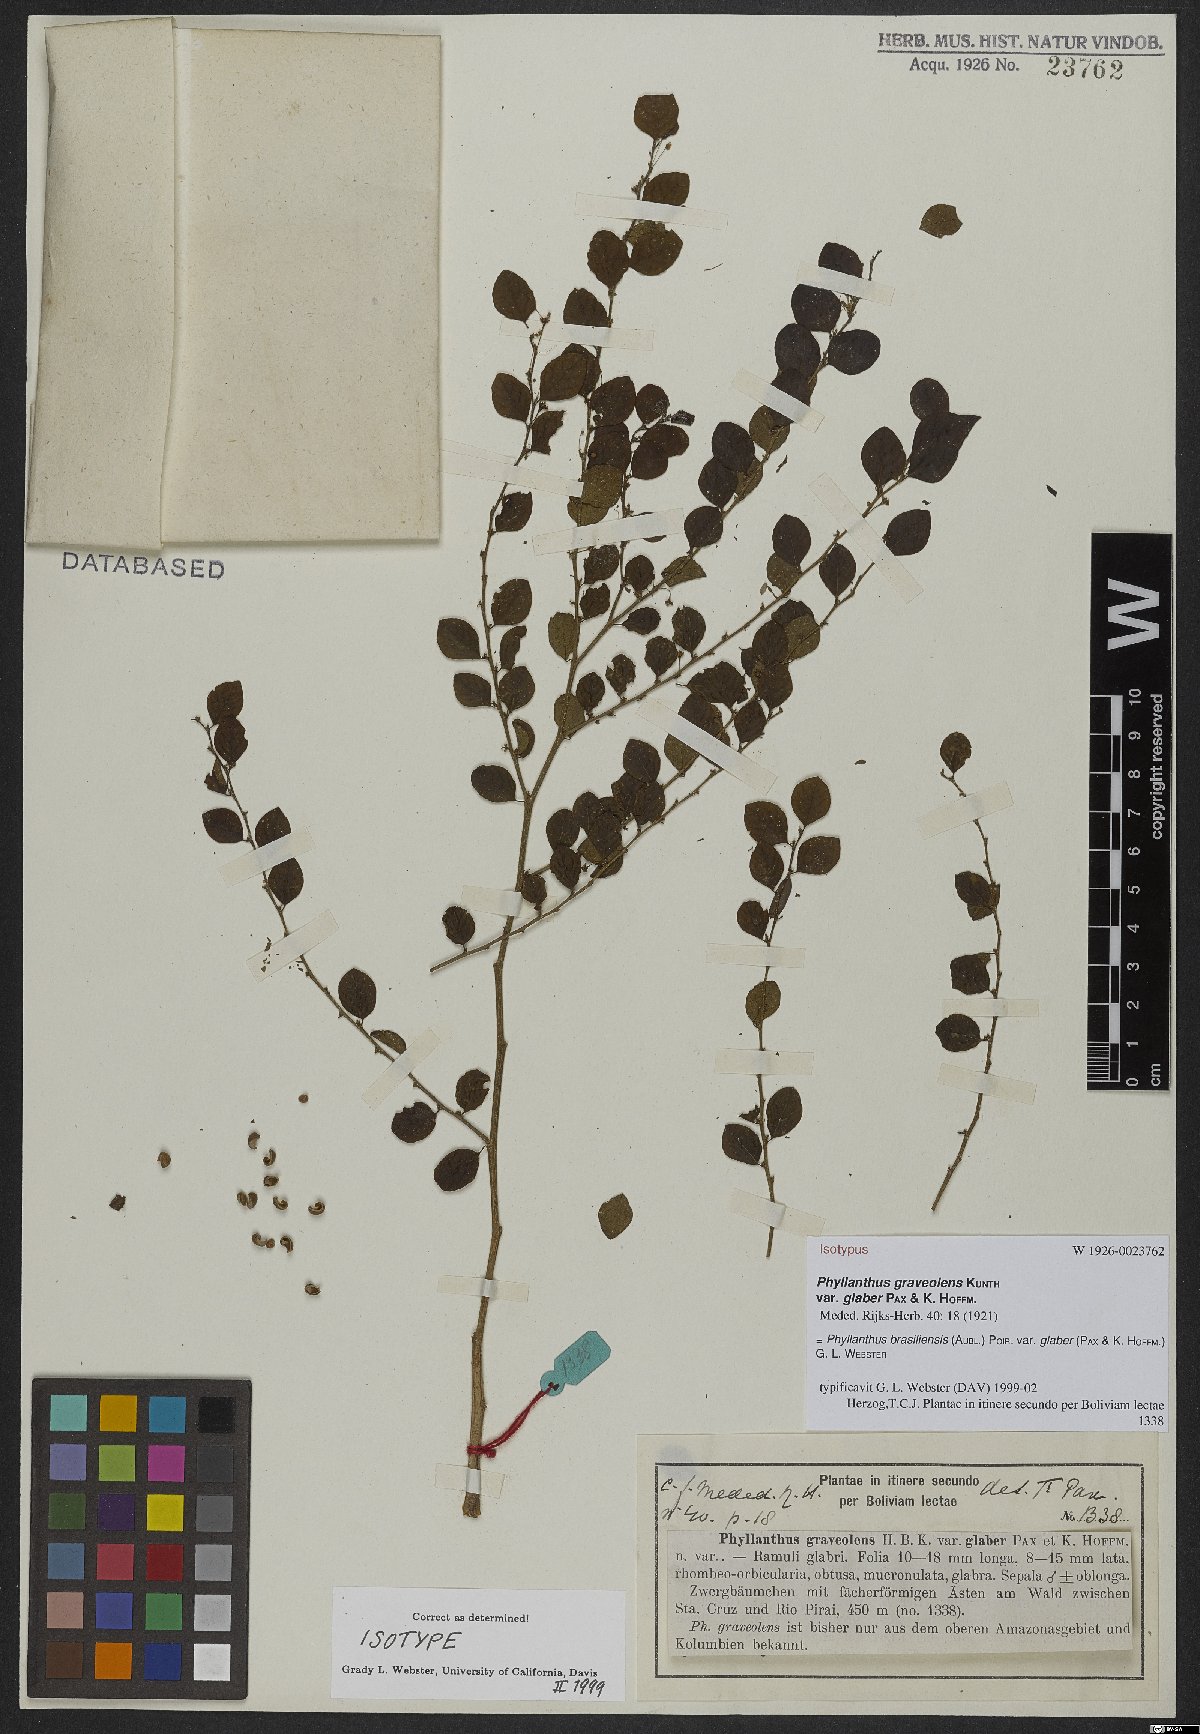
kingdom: Plantae
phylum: Tracheophyta
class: Magnoliopsida
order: Malpighiales
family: Phyllanthaceae
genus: Phyllanthus
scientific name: Phyllanthus brasiliensis
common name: Fish-poison
